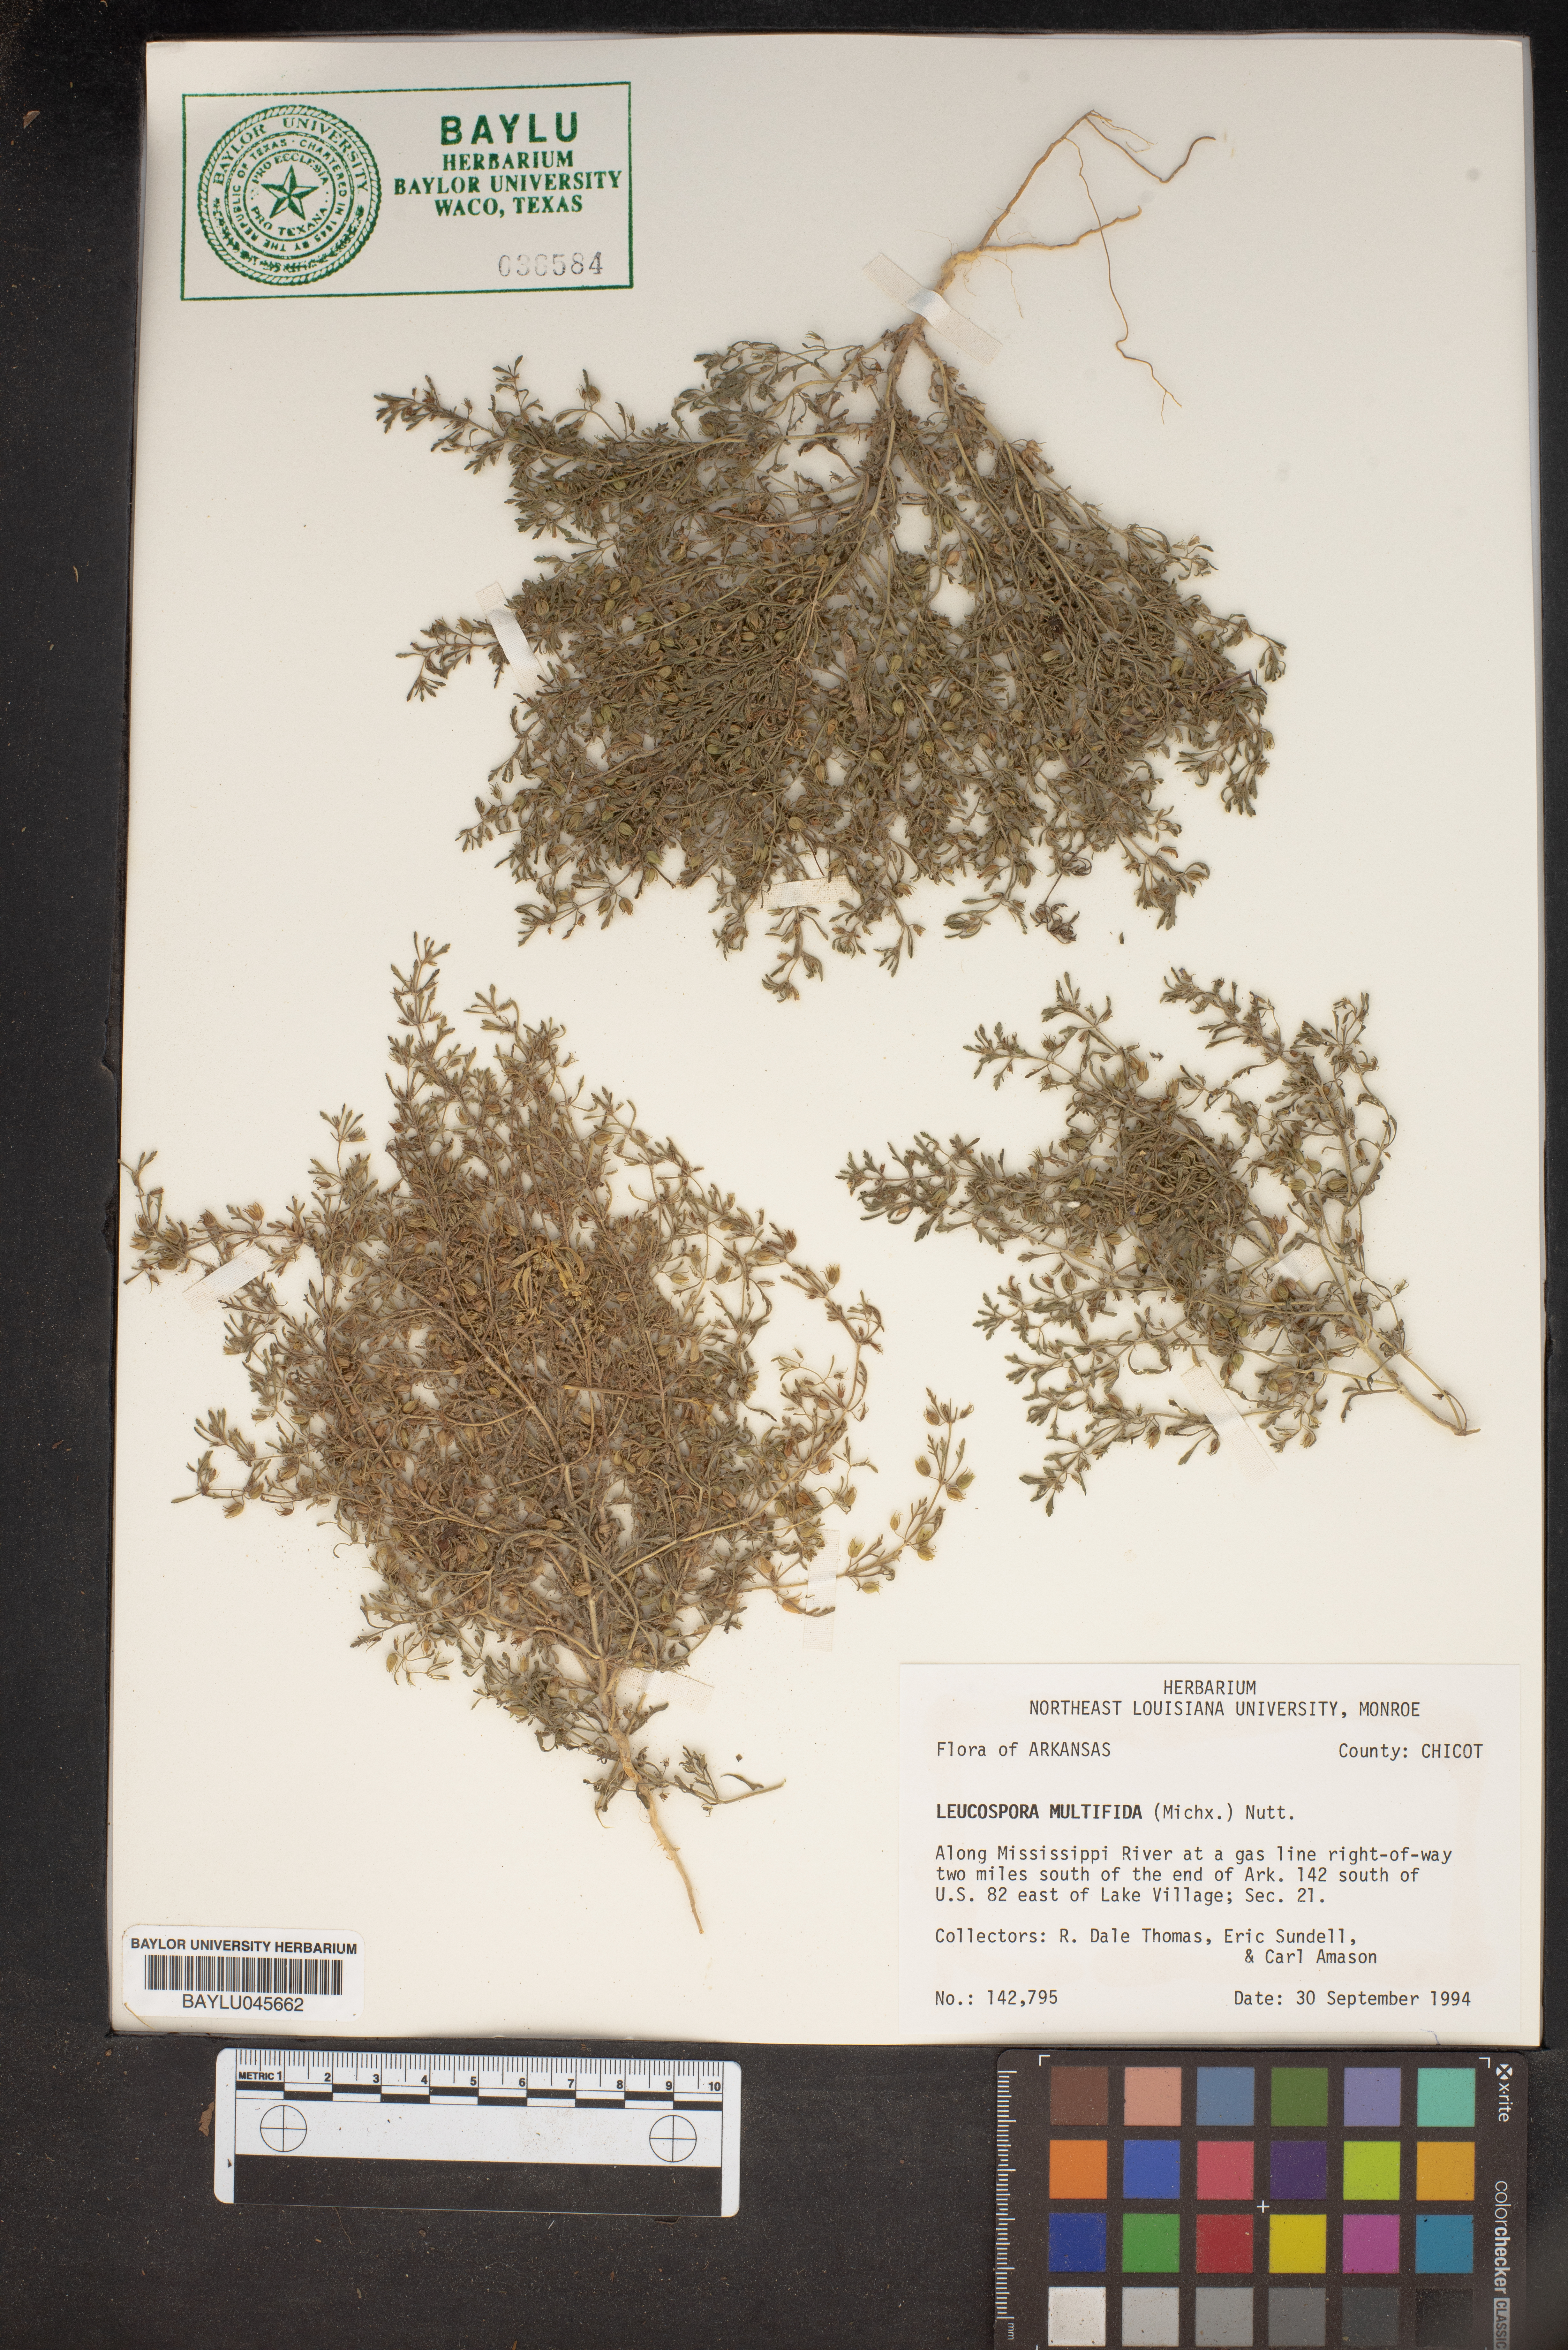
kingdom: Plantae
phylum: Tracheophyta
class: Magnoliopsida
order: Lamiales
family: Plantaginaceae
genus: Leucospora
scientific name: Leucospora multifida
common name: Narrow-leaf paleseed
